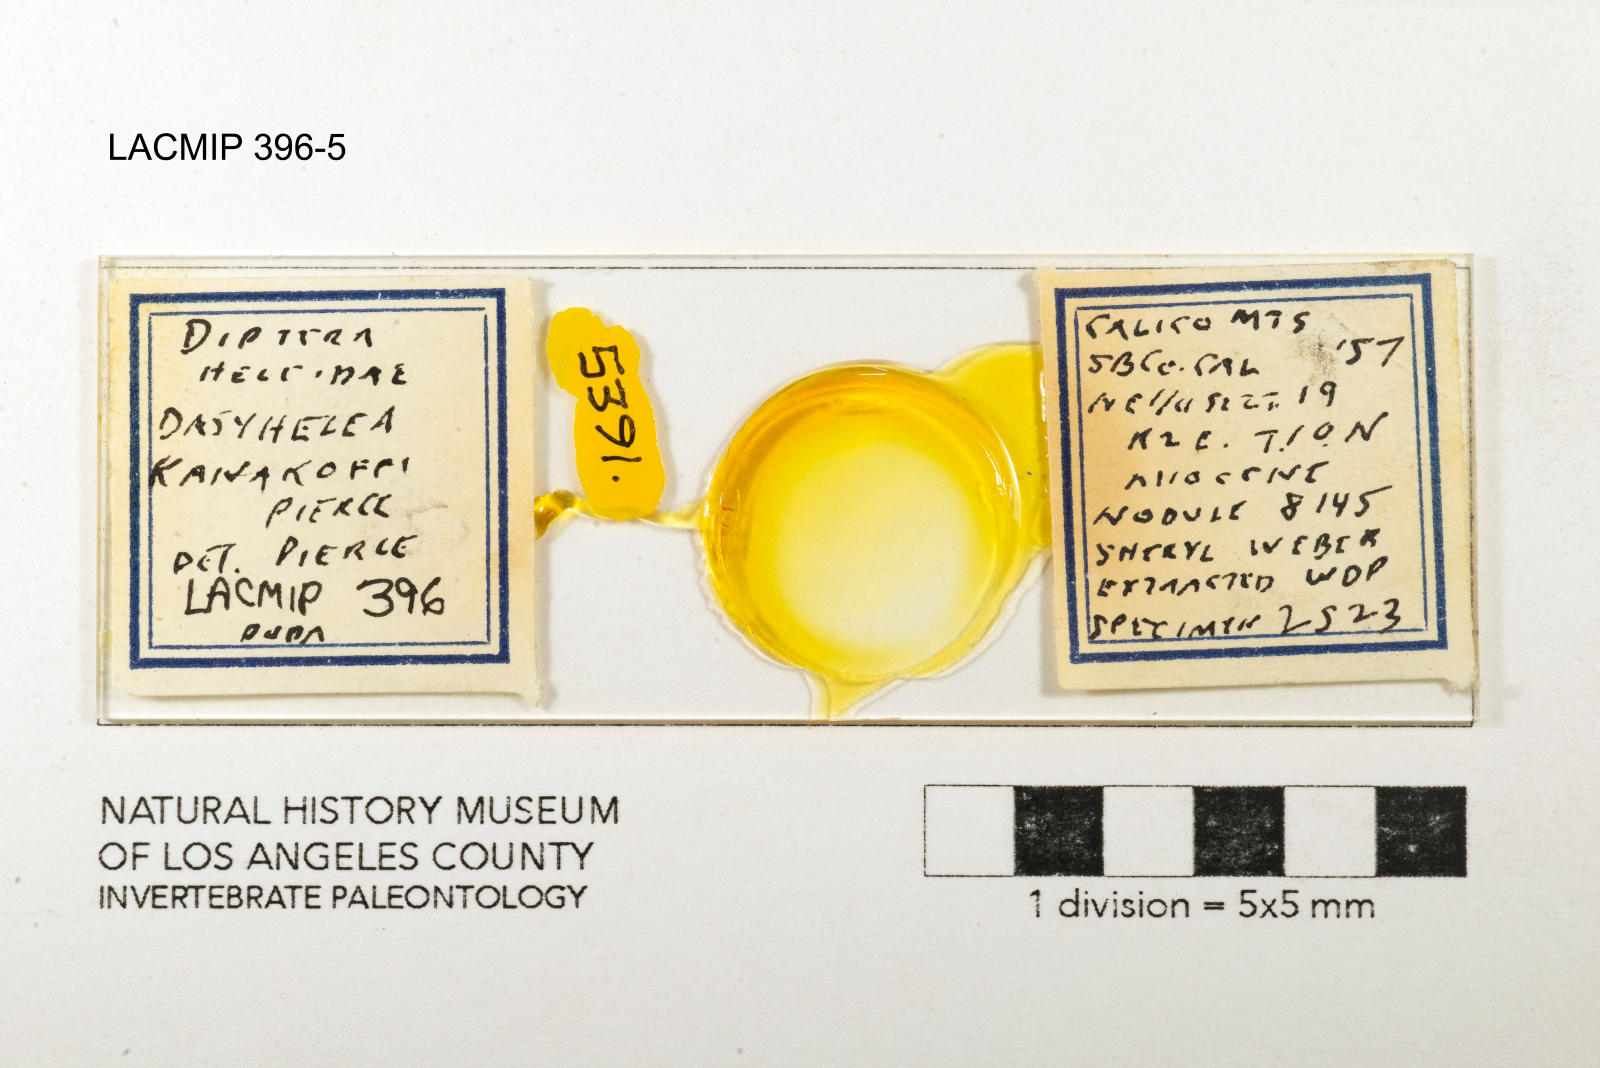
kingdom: Animalia
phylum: Arthropoda
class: Insecta
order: Diptera
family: Ceratopogonidae
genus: Dasyhelea
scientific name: Dasyhelea kanakoffi
